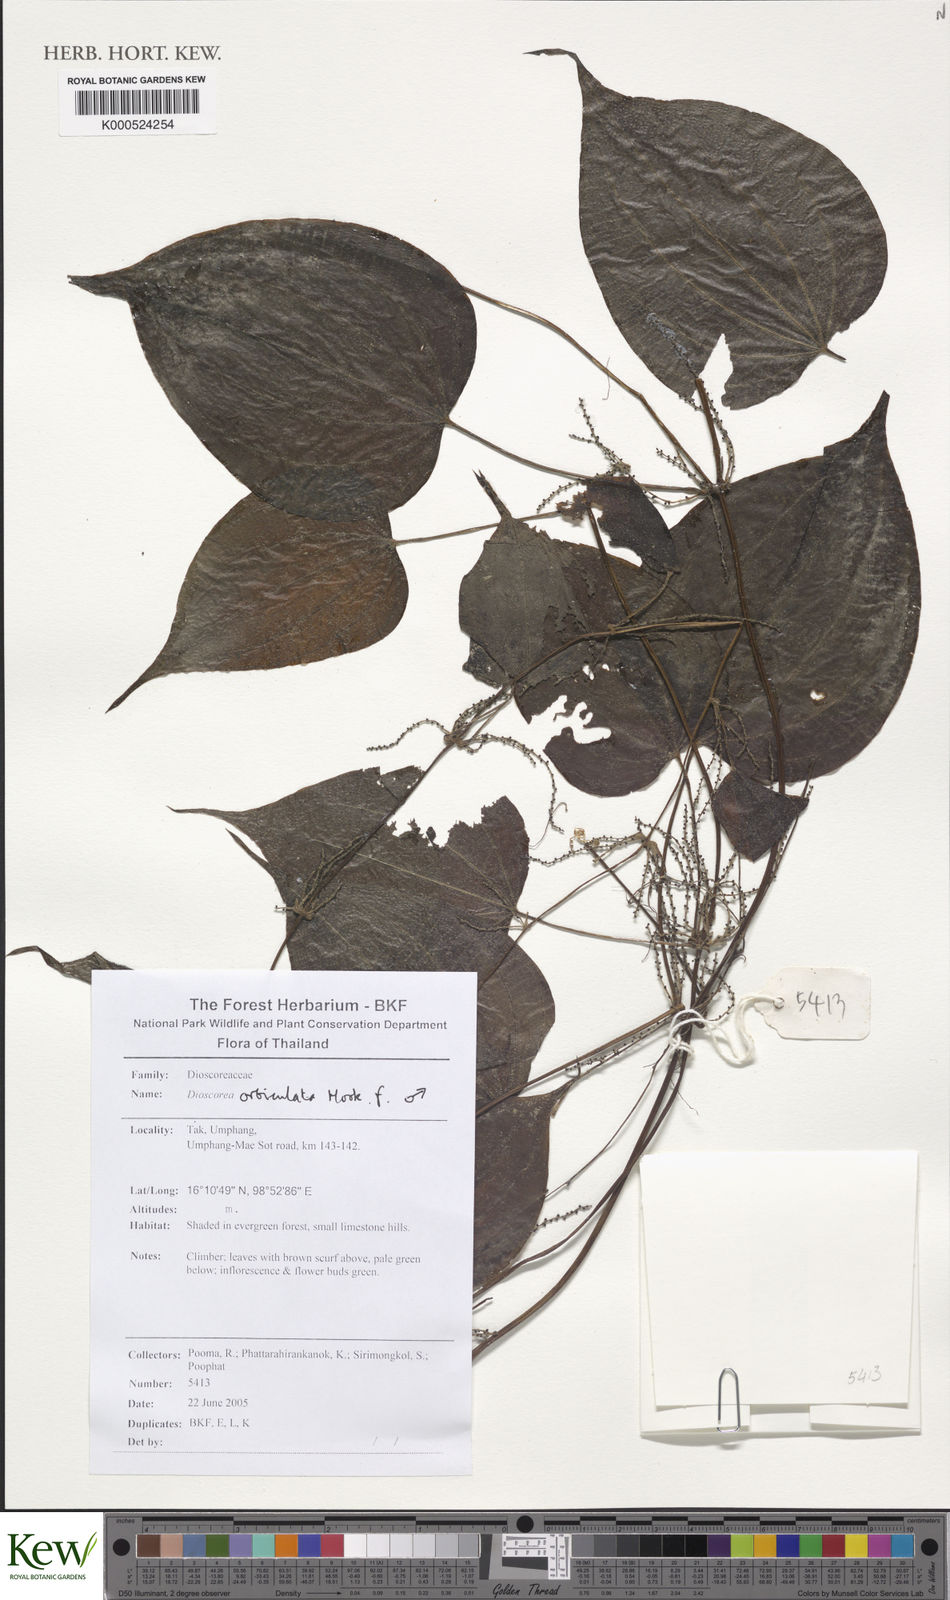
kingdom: Plantae
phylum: Tracheophyta
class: Liliopsida
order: Dioscoreales
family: Dioscoreaceae
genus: Dioscorea
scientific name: Dioscorea orbiculata
